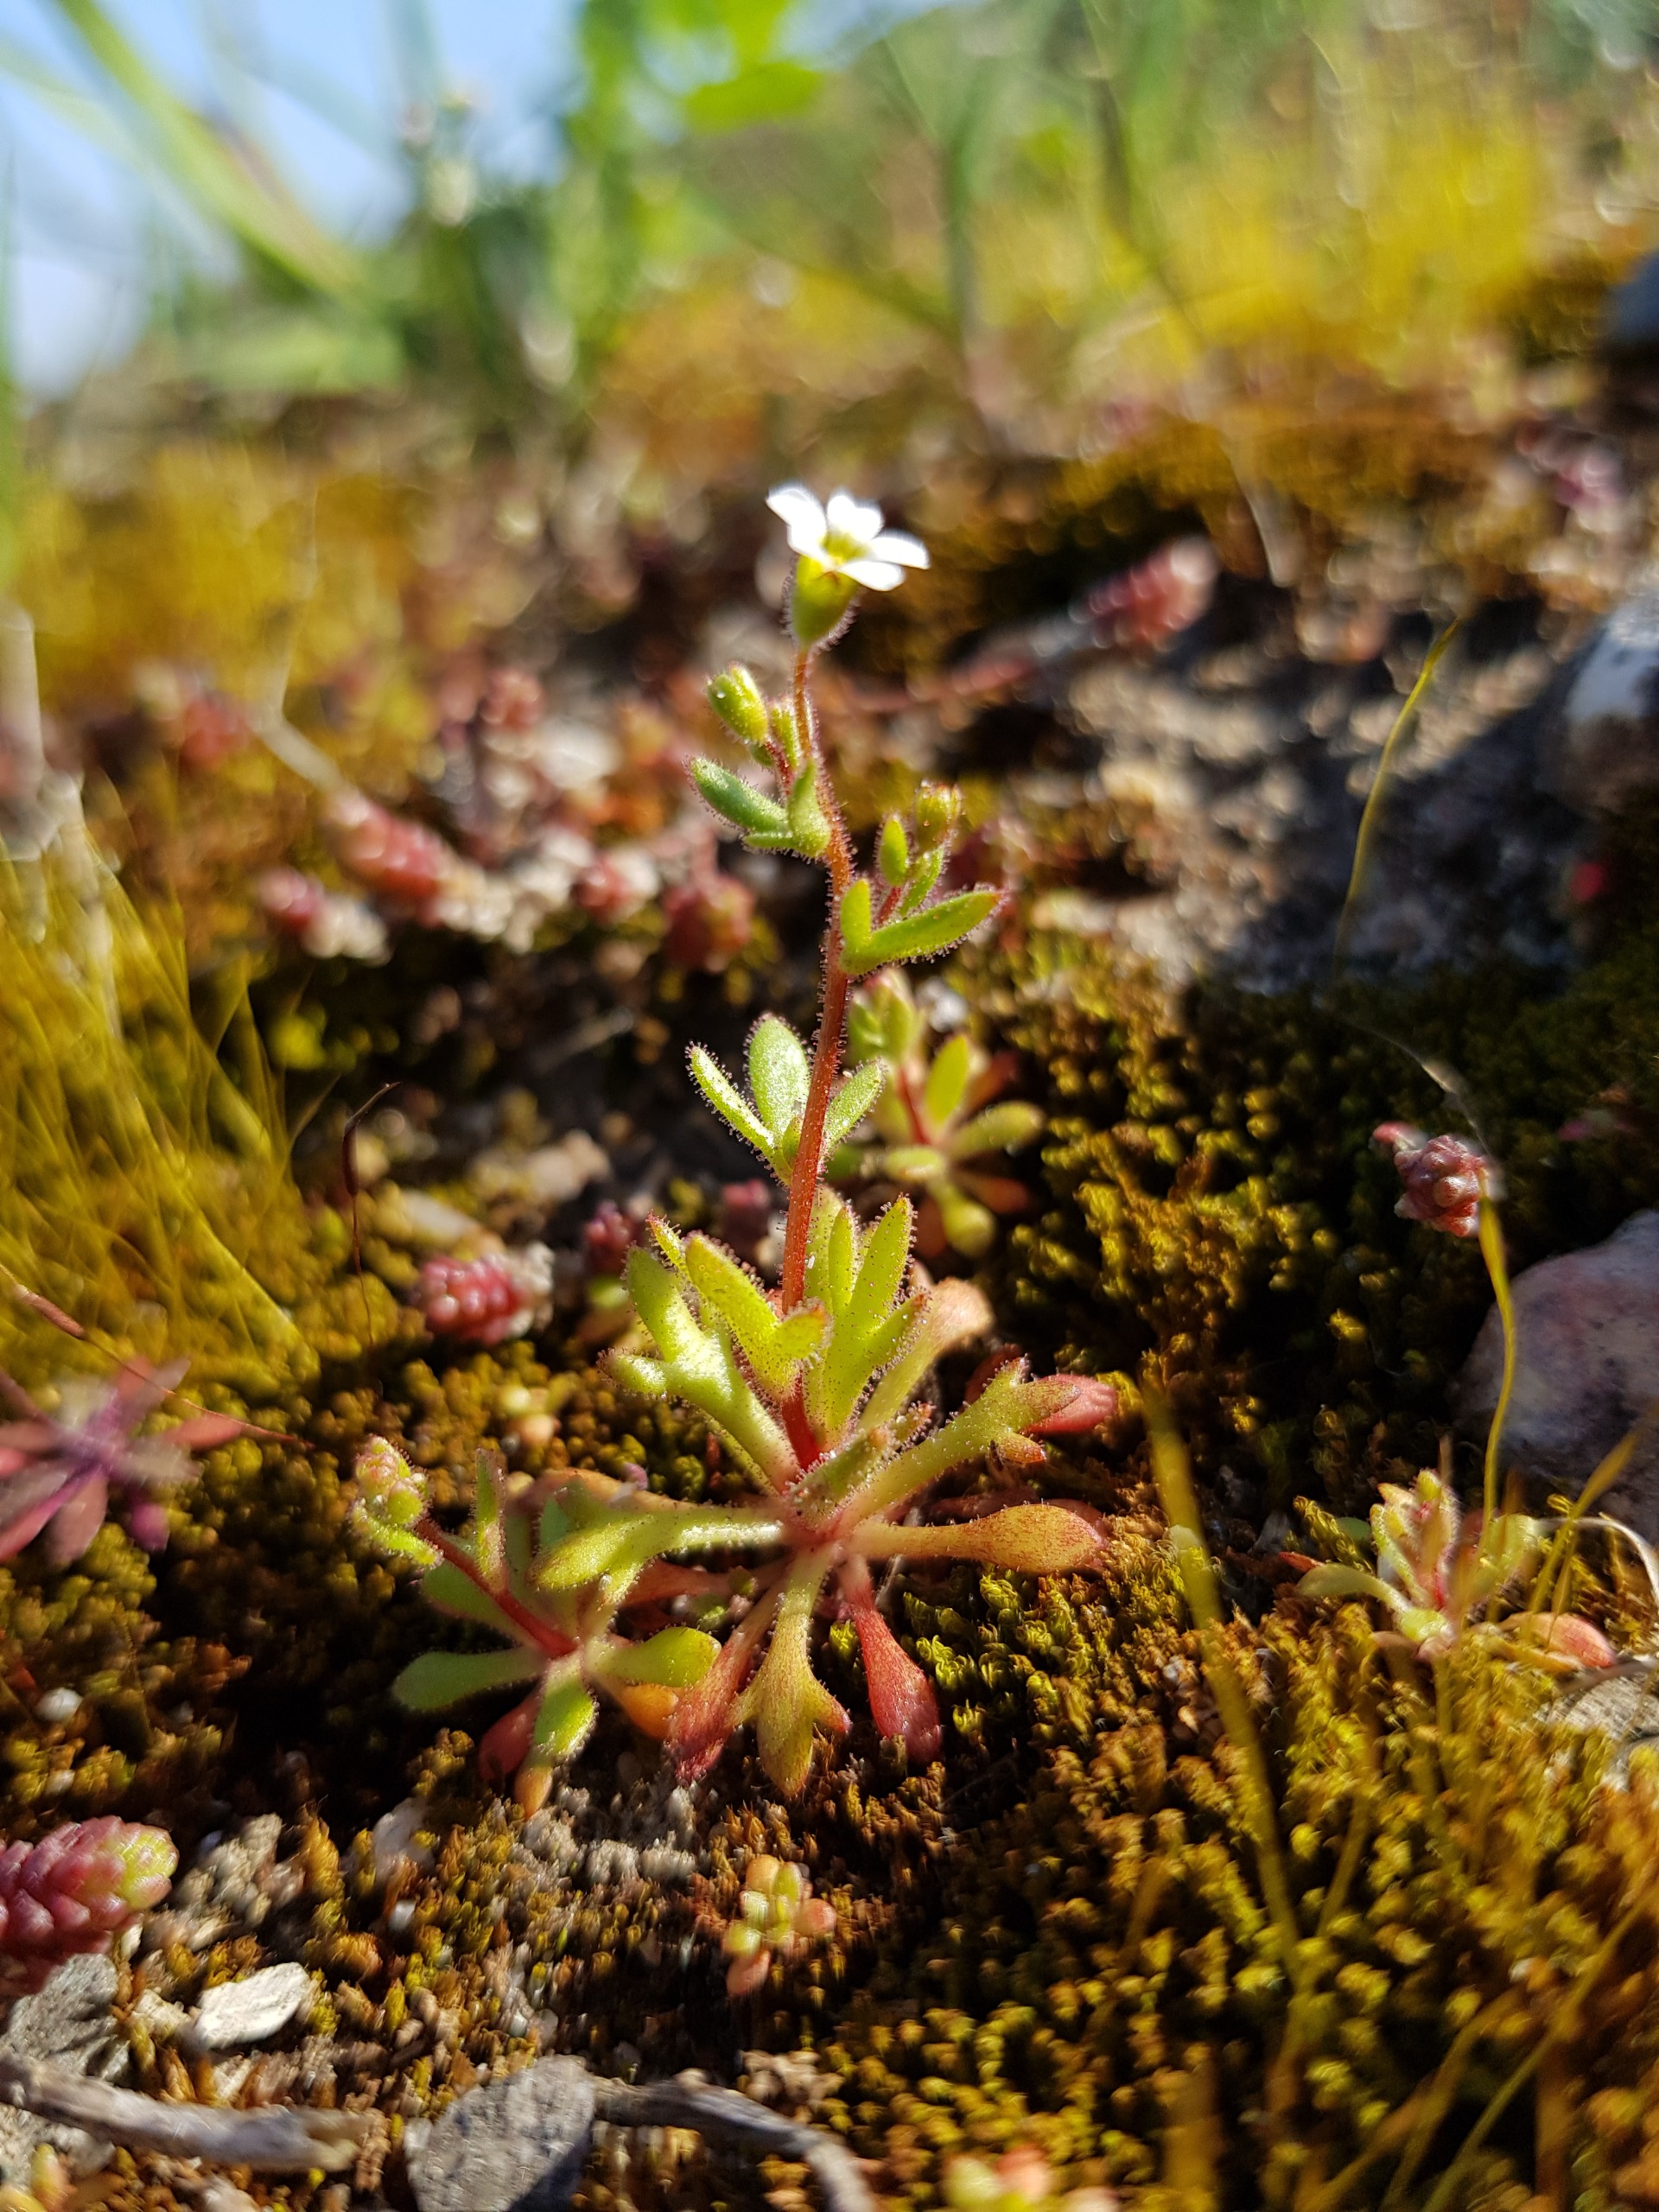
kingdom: Plantae
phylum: Tracheophyta
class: Magnoliopsida
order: Saxifragales
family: Saxifragaceae
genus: Saxifraga
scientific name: Saxifraga tridactylites
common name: Trekløft-stenbræk
